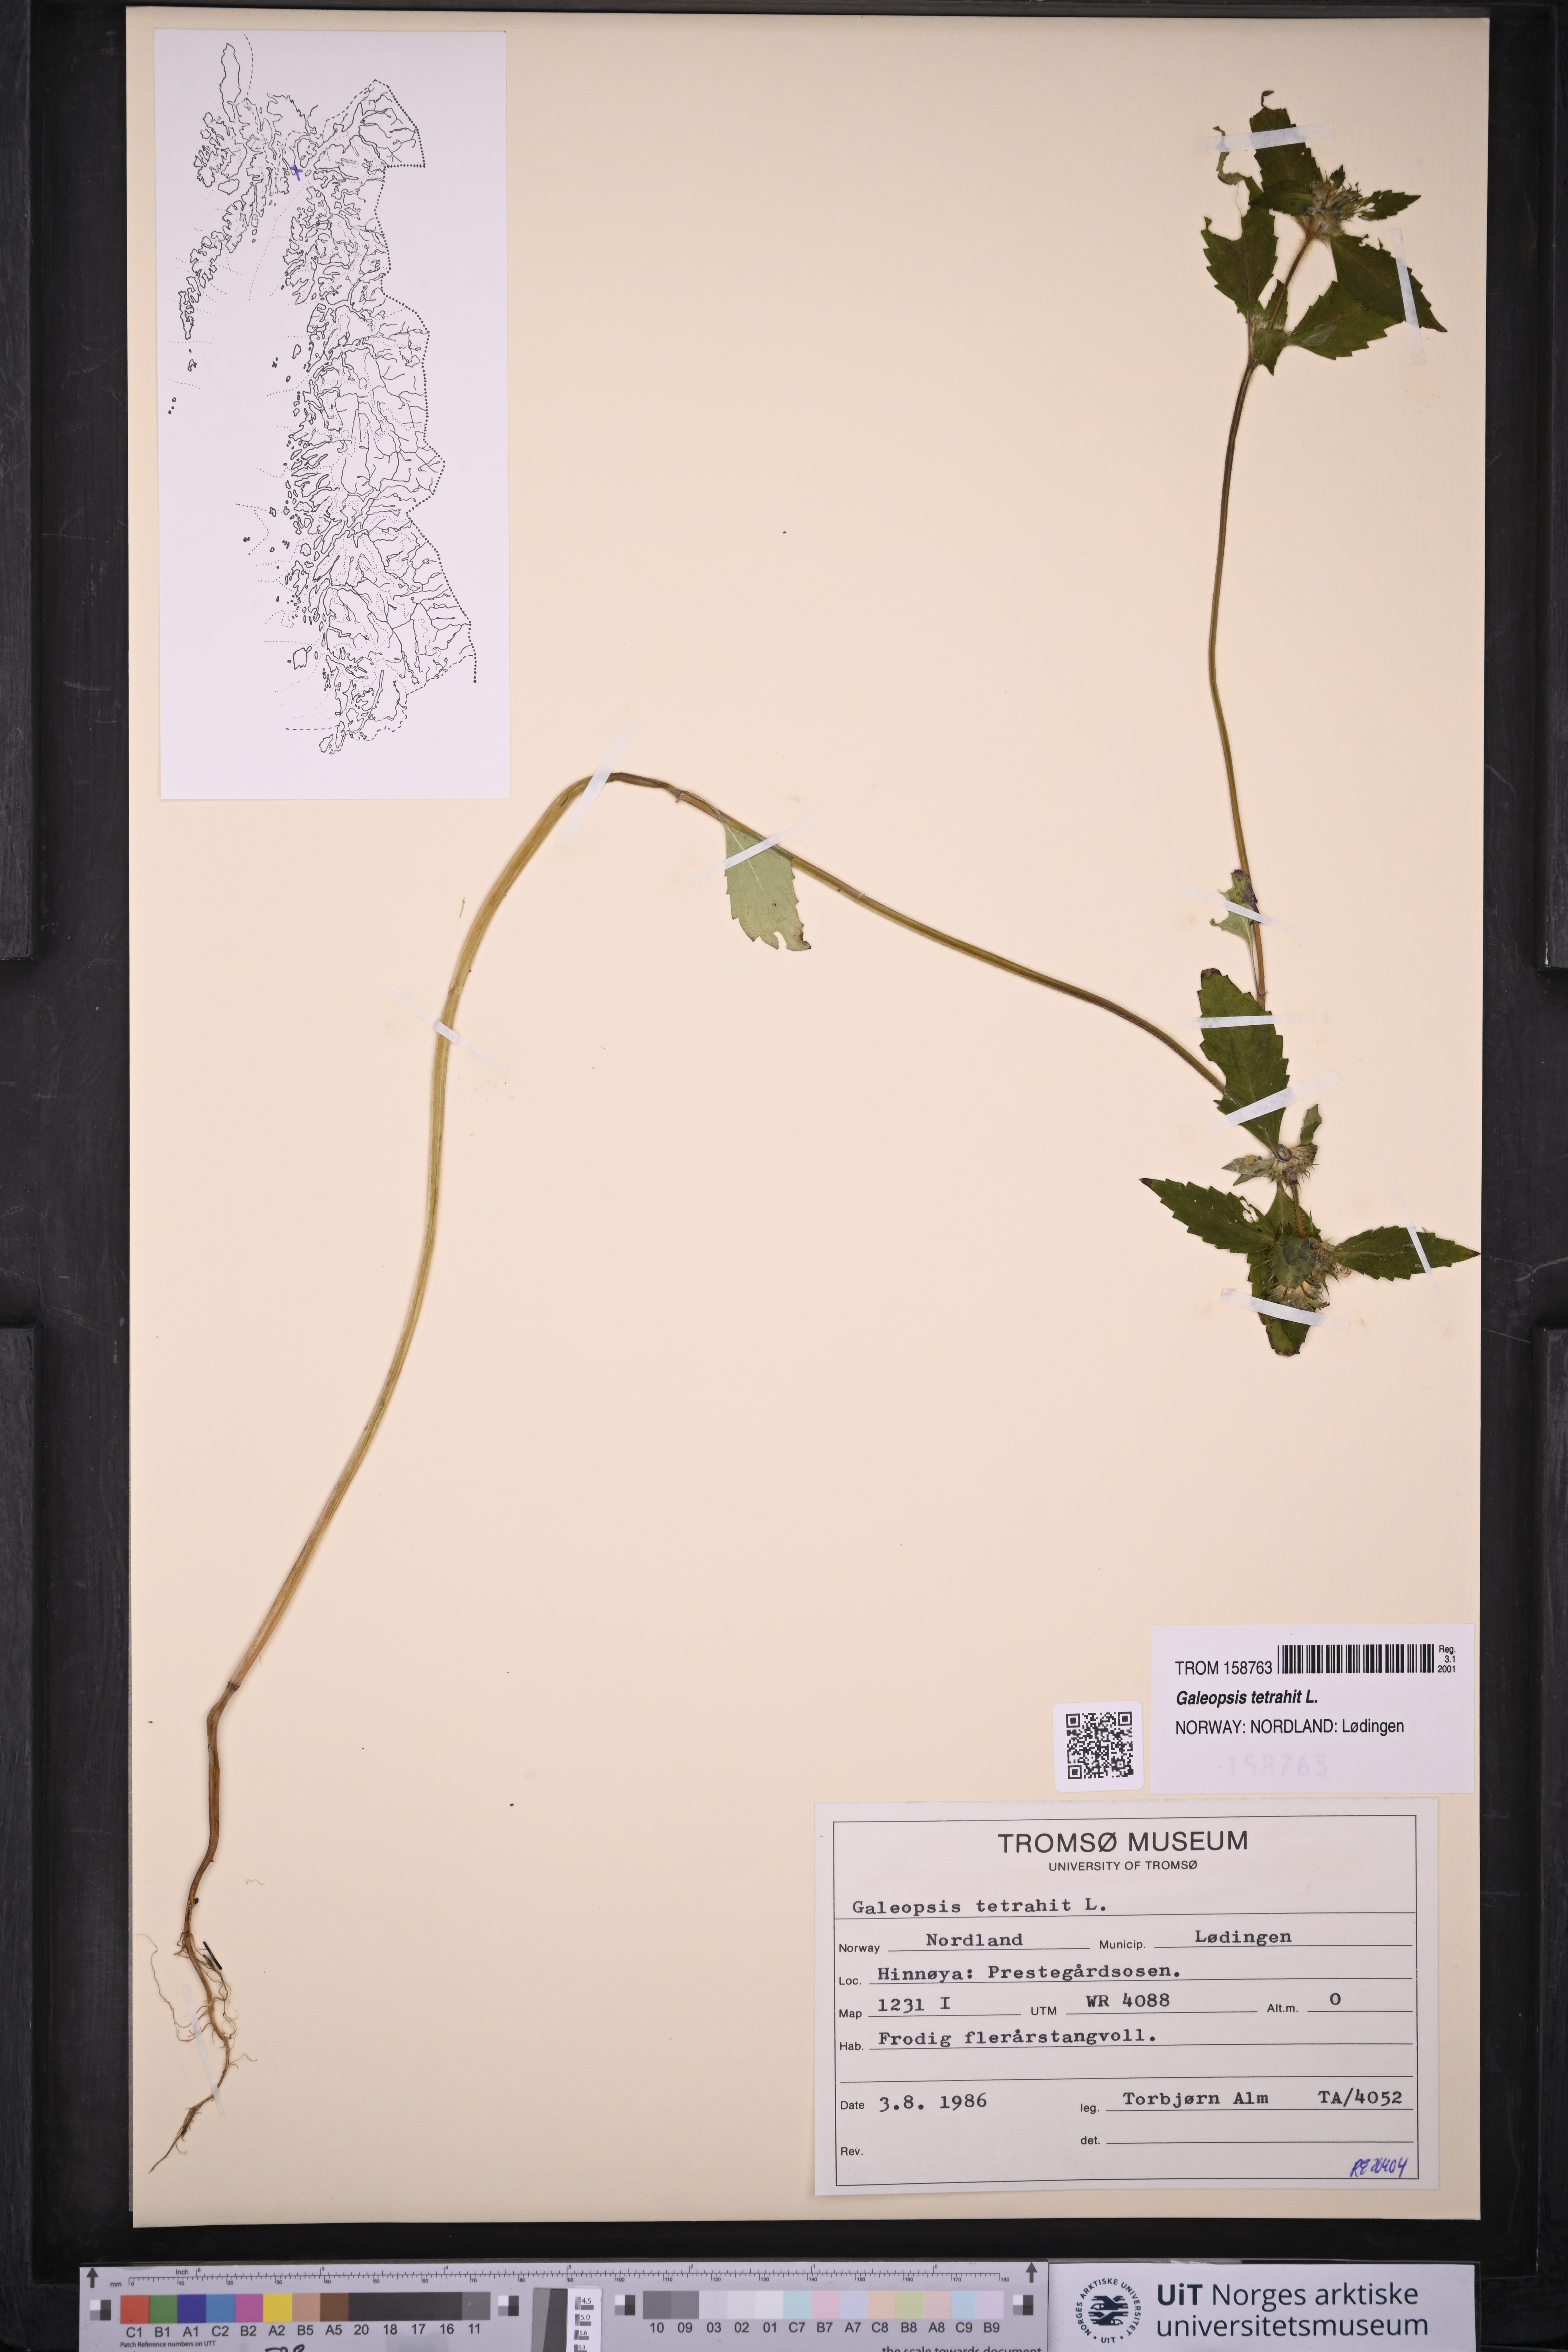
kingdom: Plantae
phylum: Tracheophyta
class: Magnoliopsida
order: Lamiales
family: Lamiaceae
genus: Galeopsis
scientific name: Galeopsis tetrahit
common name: Common hemp-nettle
